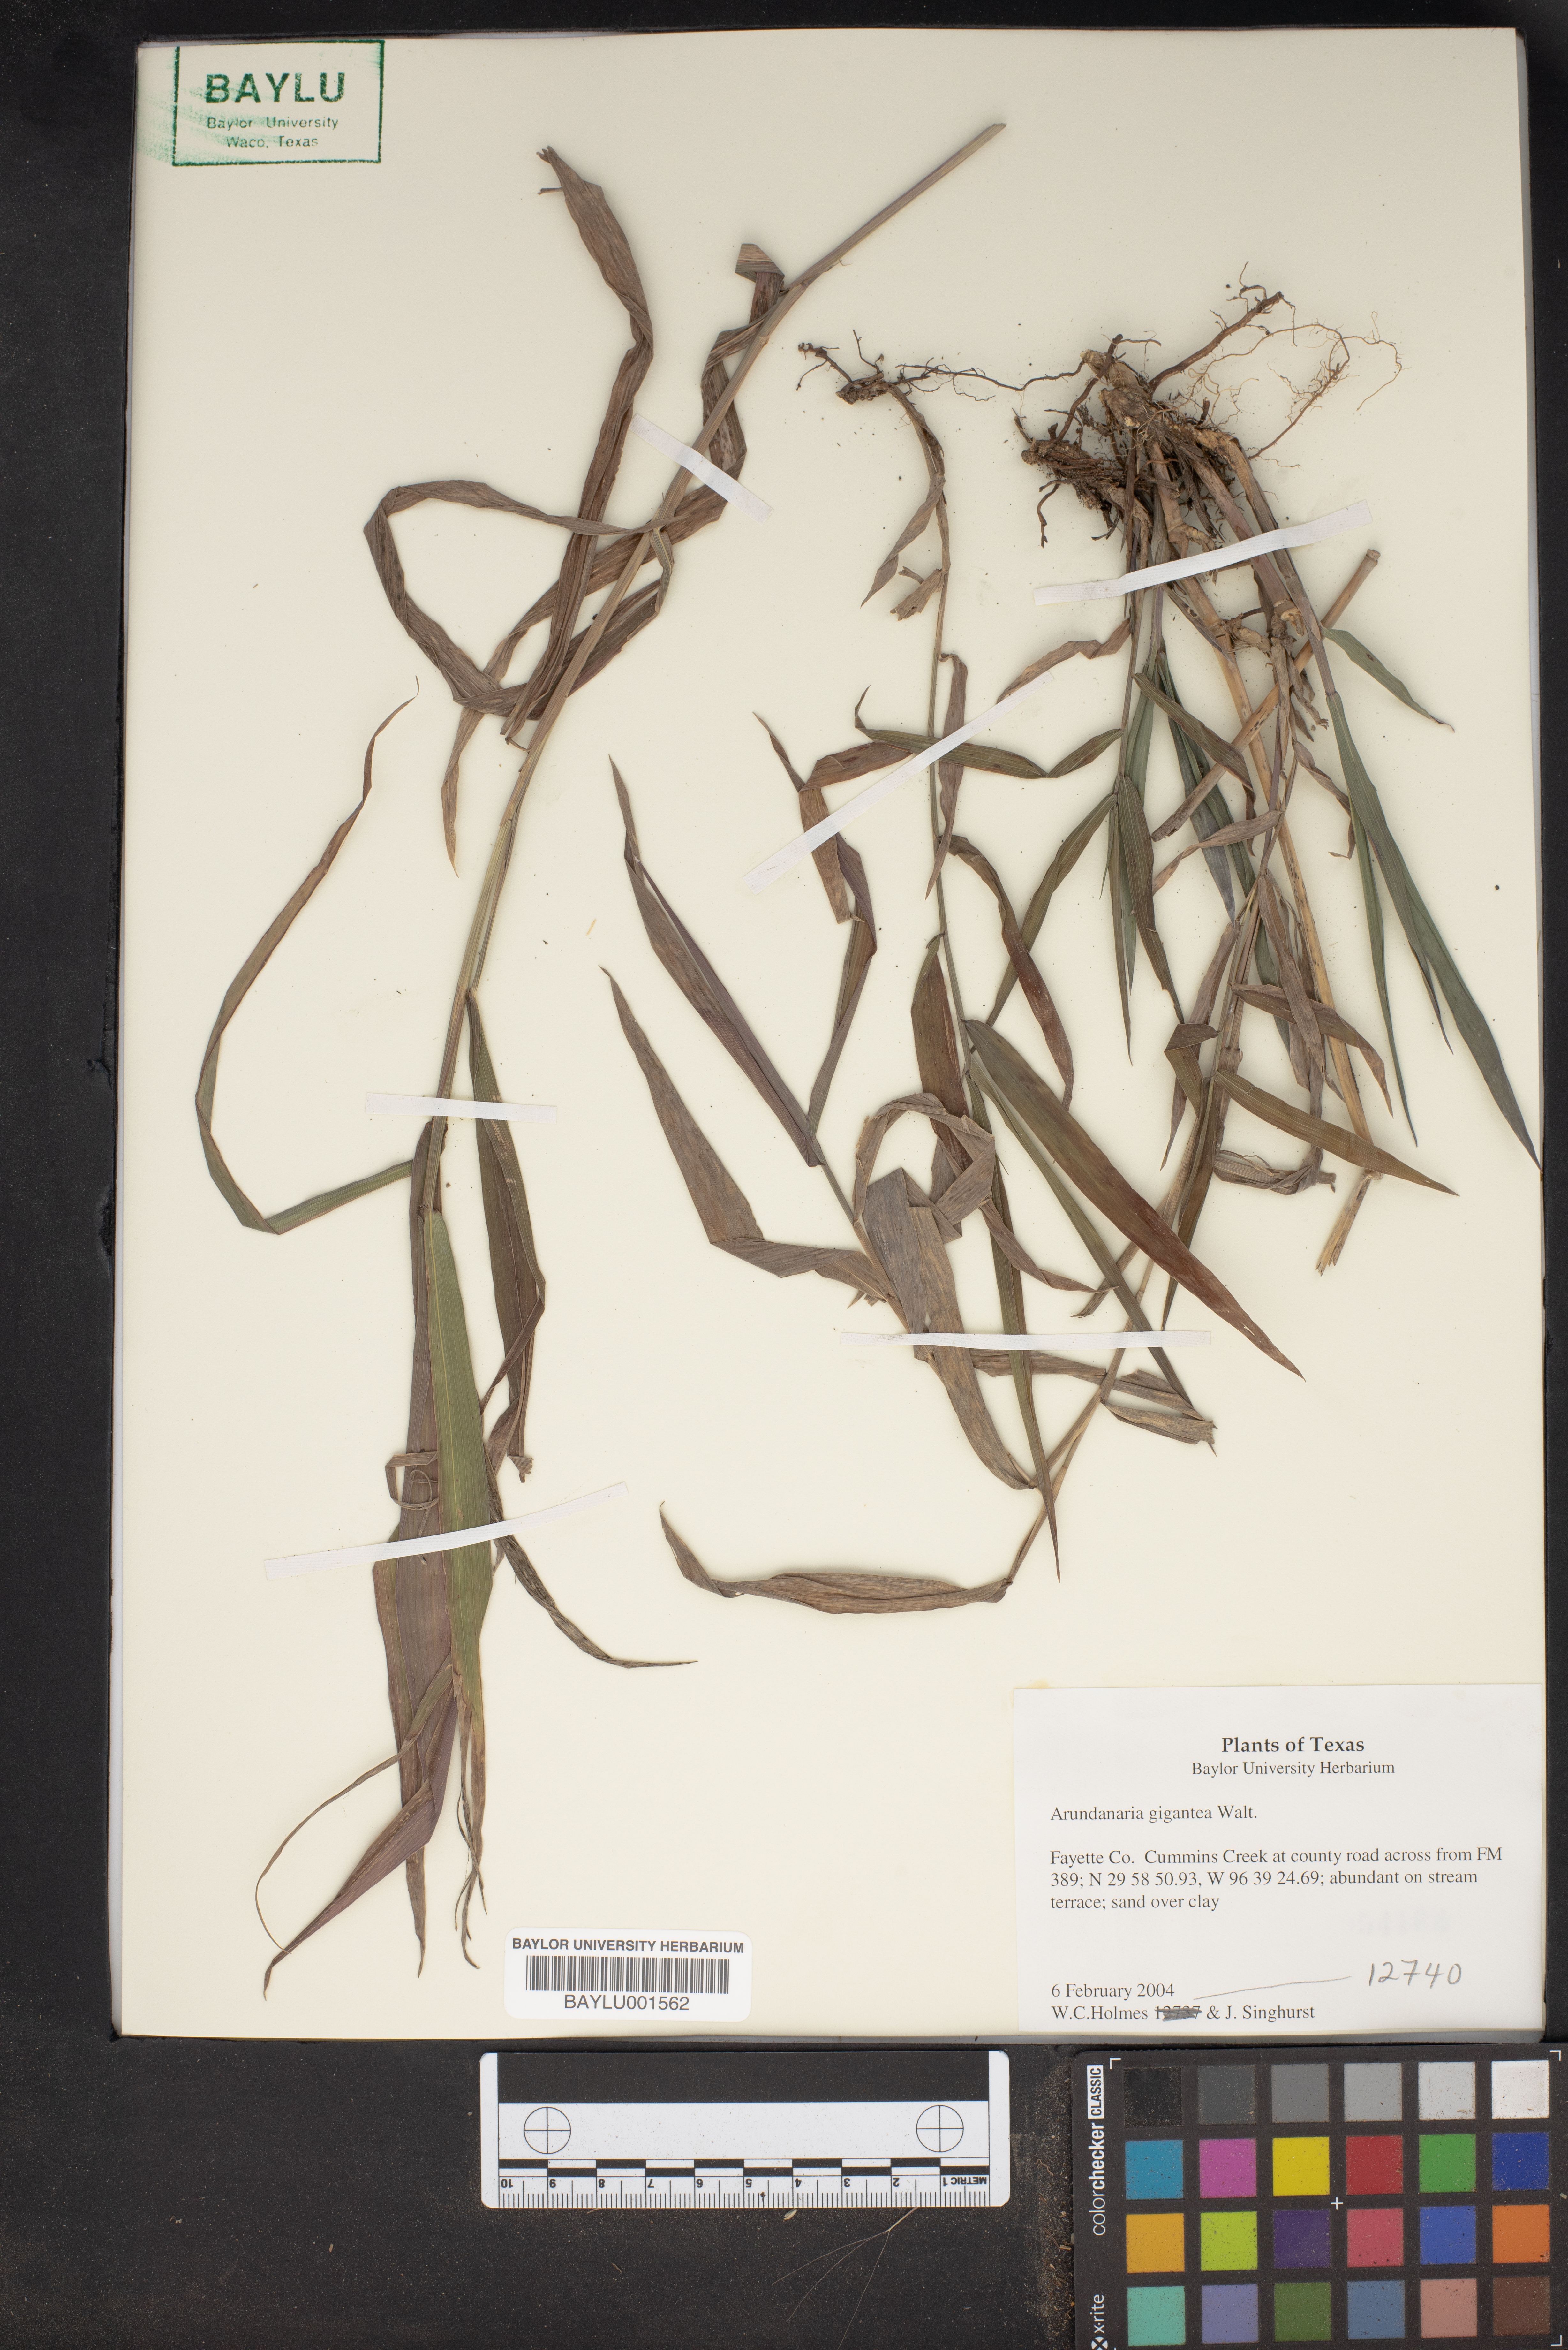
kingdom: Plantae
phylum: Tracheophyta
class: Liliopsida
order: Poales
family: Poaceae
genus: Arundinaria
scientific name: Arundinaria gigantea
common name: Giant cane
